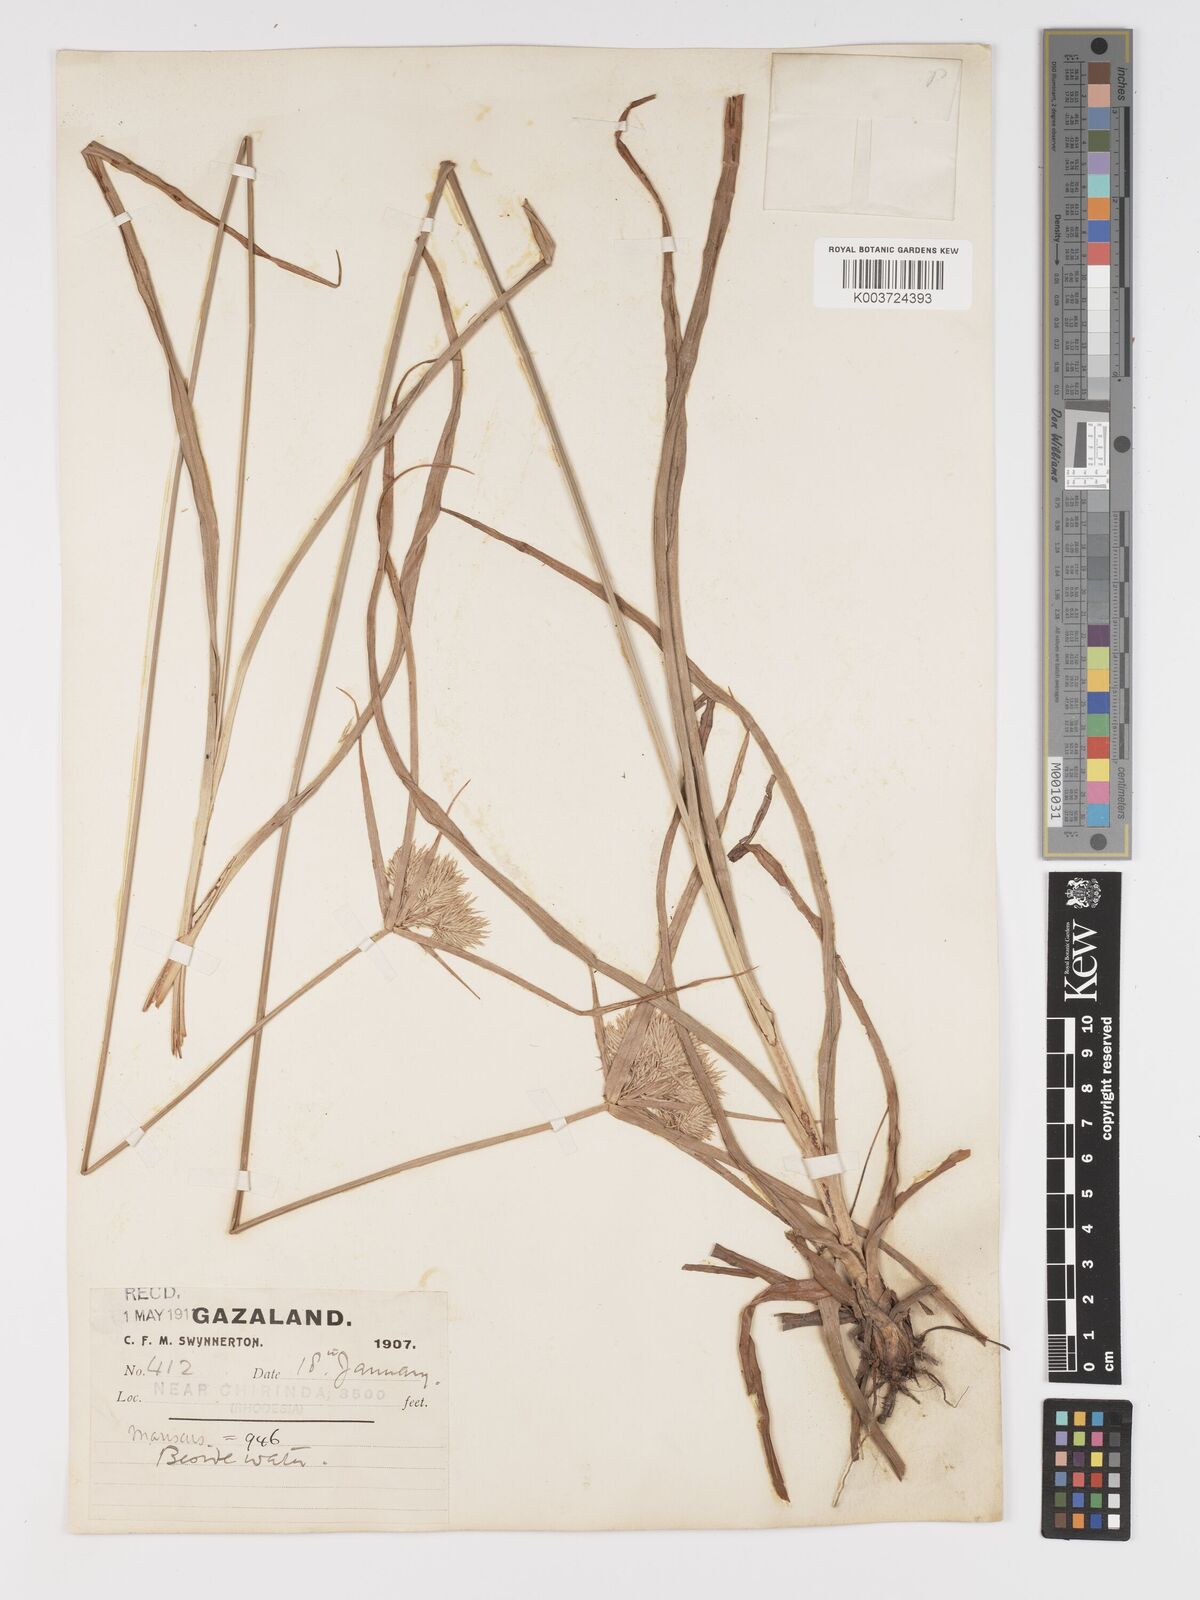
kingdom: Plantae
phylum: Tracheophyta
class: Liliopsida
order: Poales
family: Cyperaceae
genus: Cyperus
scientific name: Cyperus hemisphaericus
